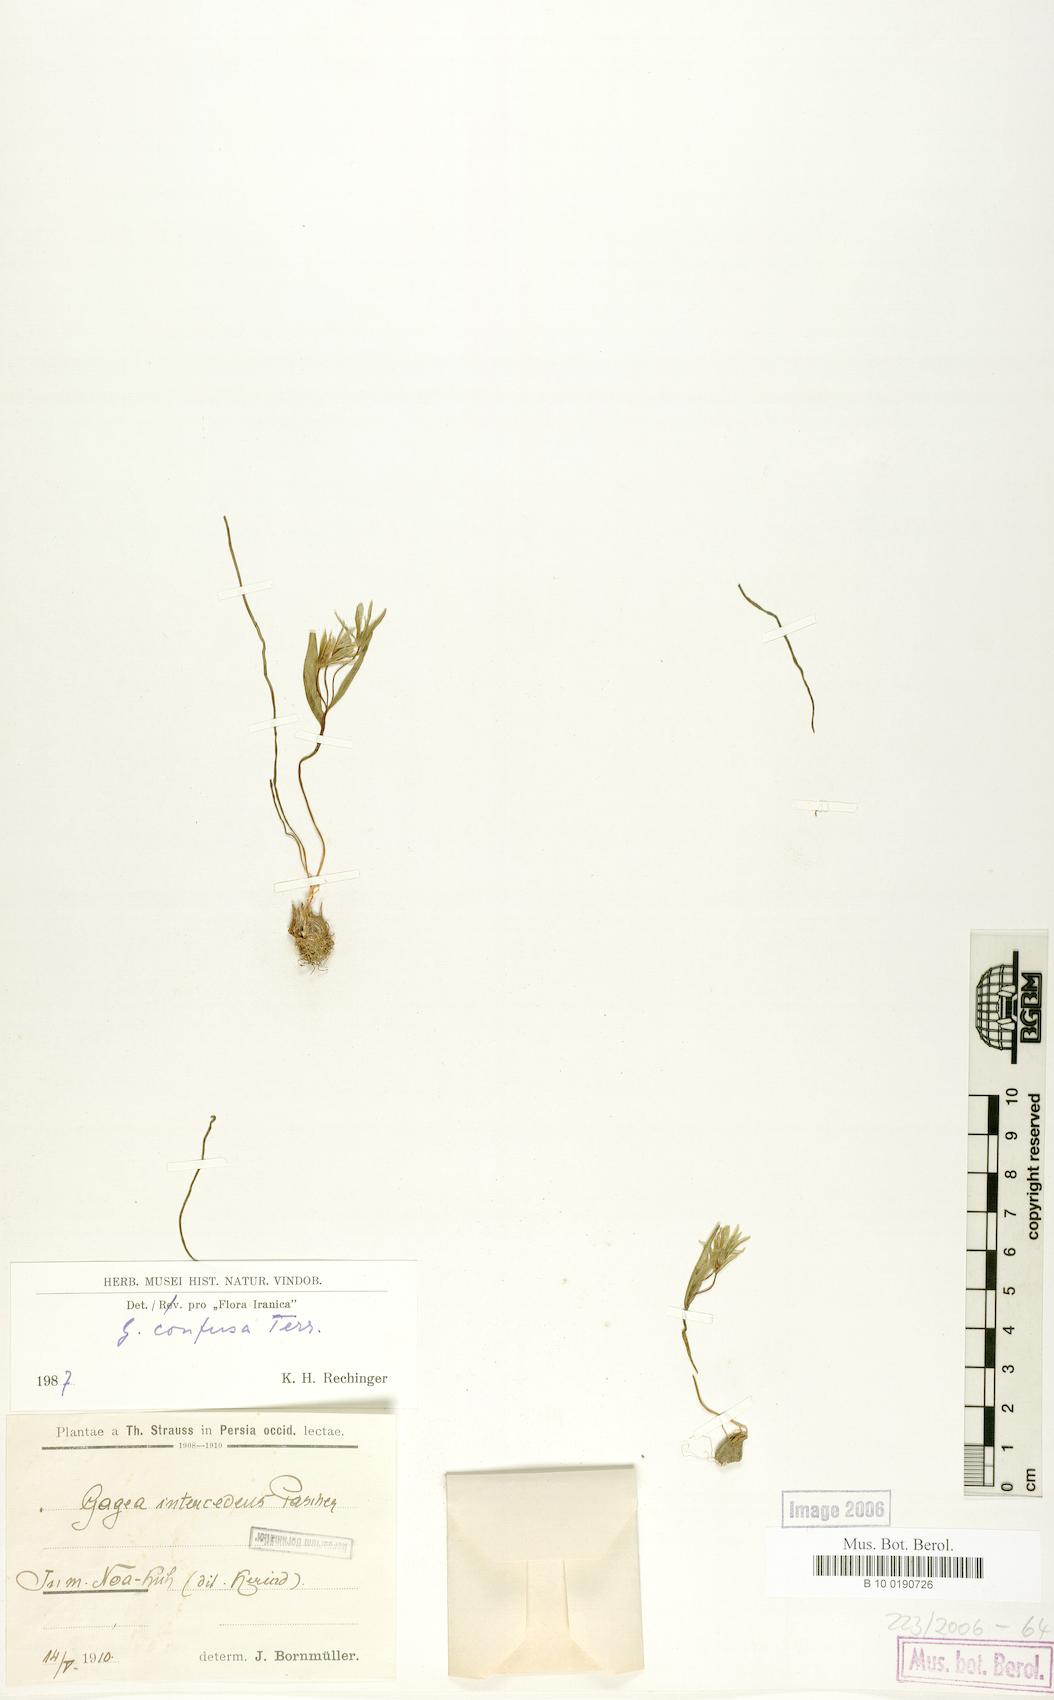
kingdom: Plantae
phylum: Tracheophyta
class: Liliopsida
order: Liliales
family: Liliaceae
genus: Gagea
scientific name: Gagea confusa
